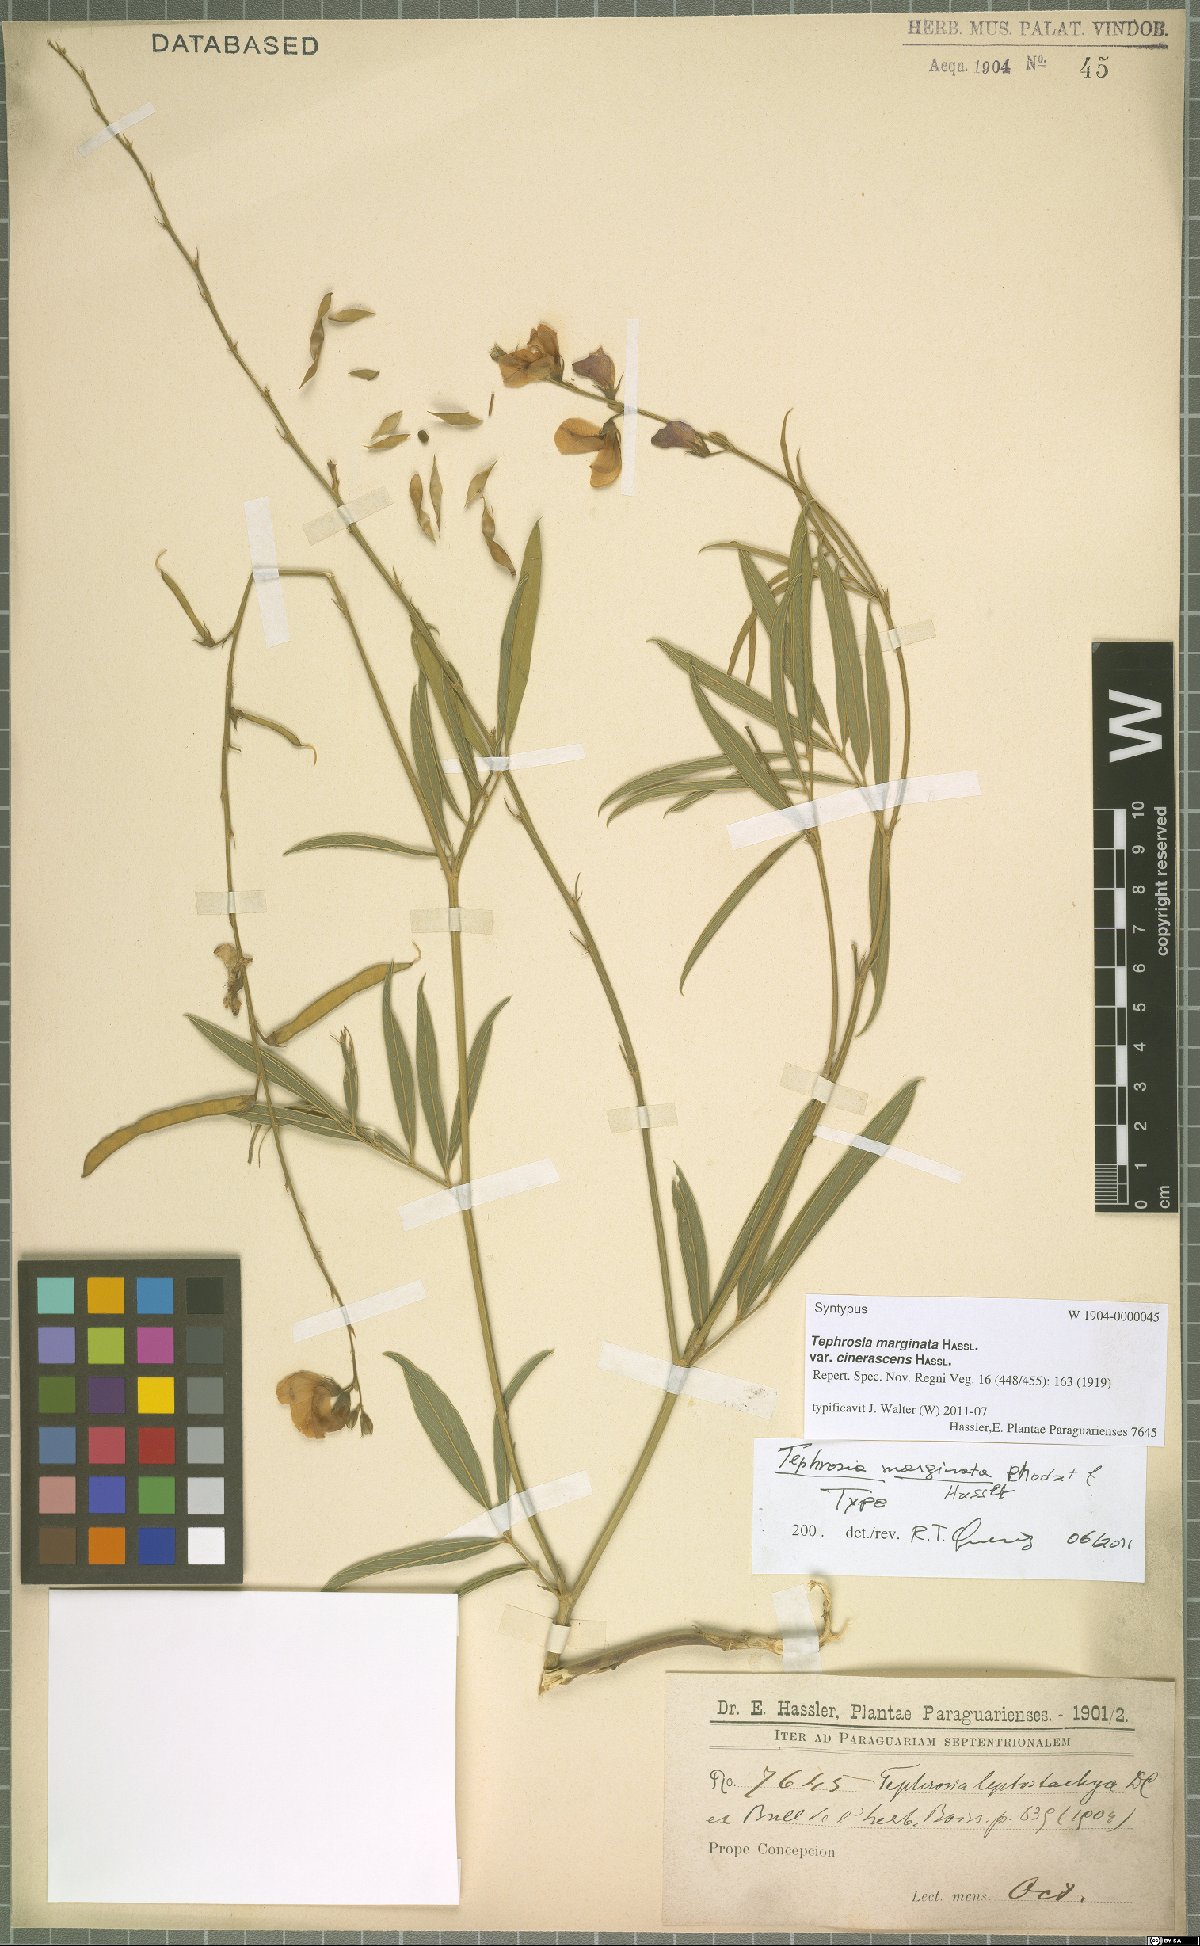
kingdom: Plantae
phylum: Tracheophyta
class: Magnoliopsida
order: Fabales
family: Fabaceae
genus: Tephrosia
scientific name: Tephrosia marginata
